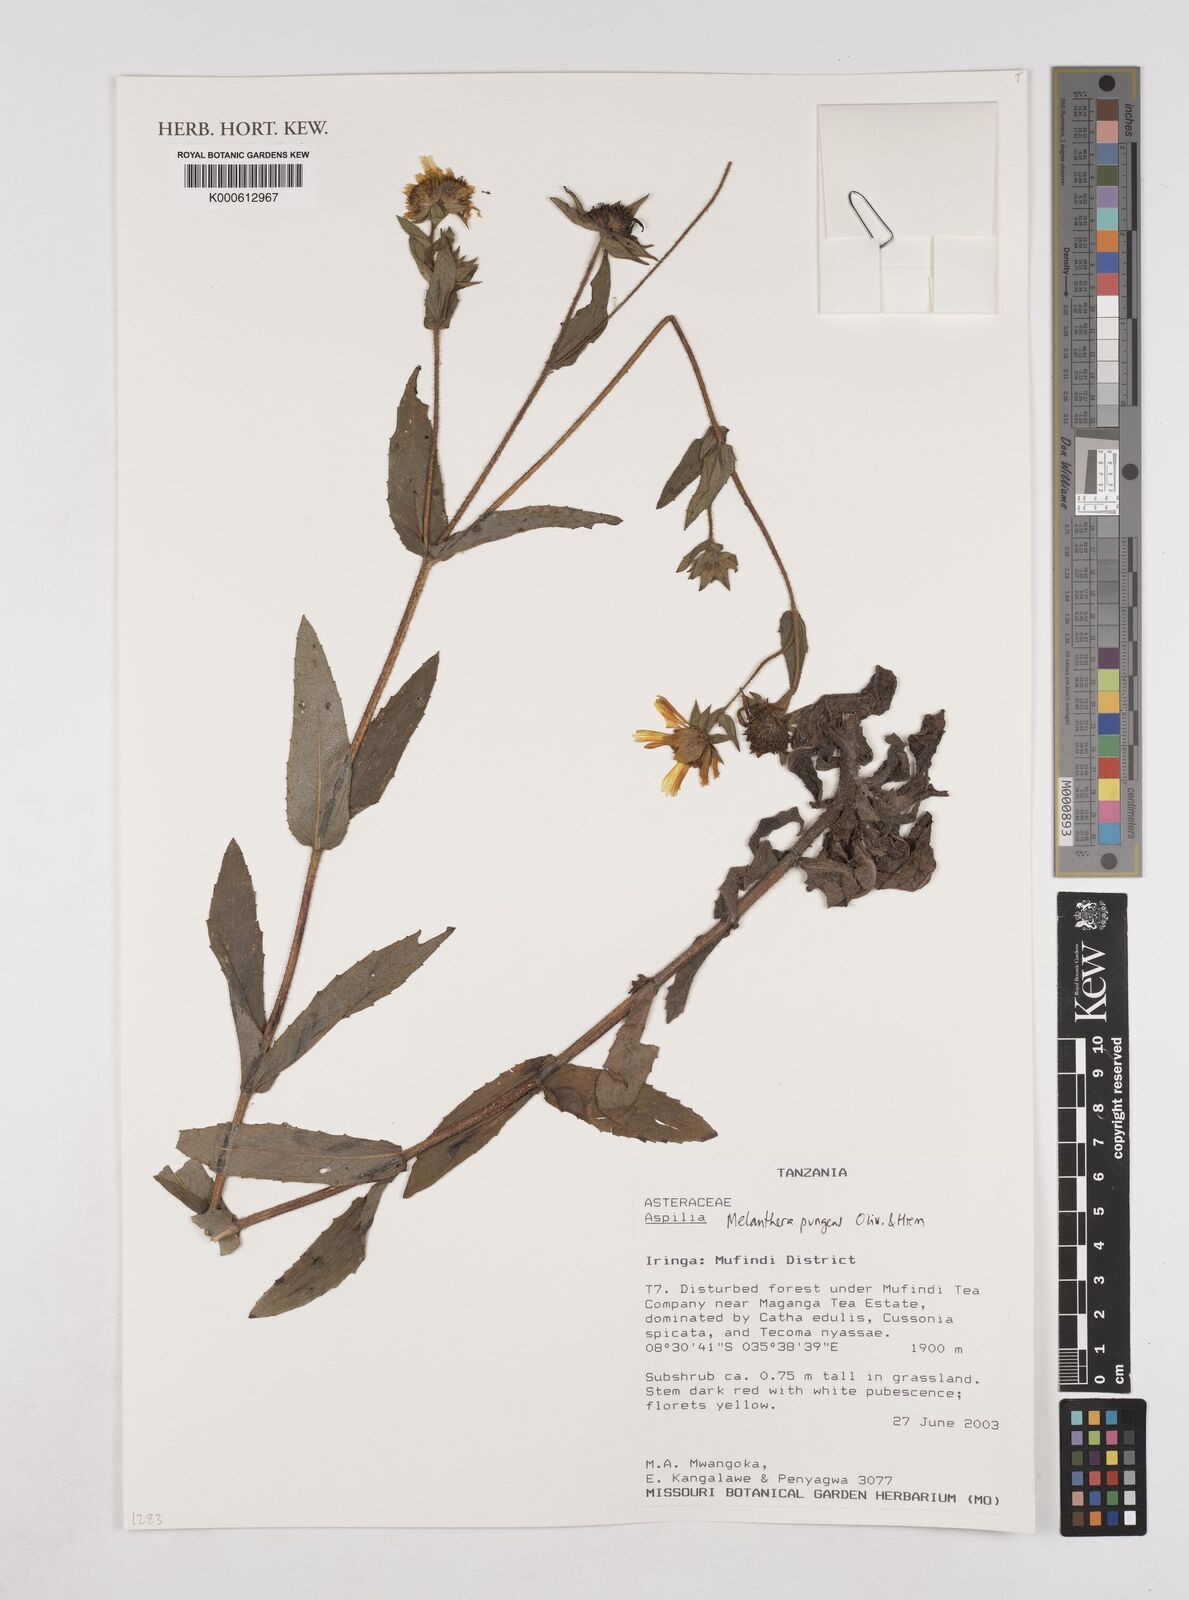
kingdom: Plantae
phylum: Tracheophyta
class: Magnoliopsida
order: Asterales
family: Asteraceae
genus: Lipotriche
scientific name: Lipotriche pungens
